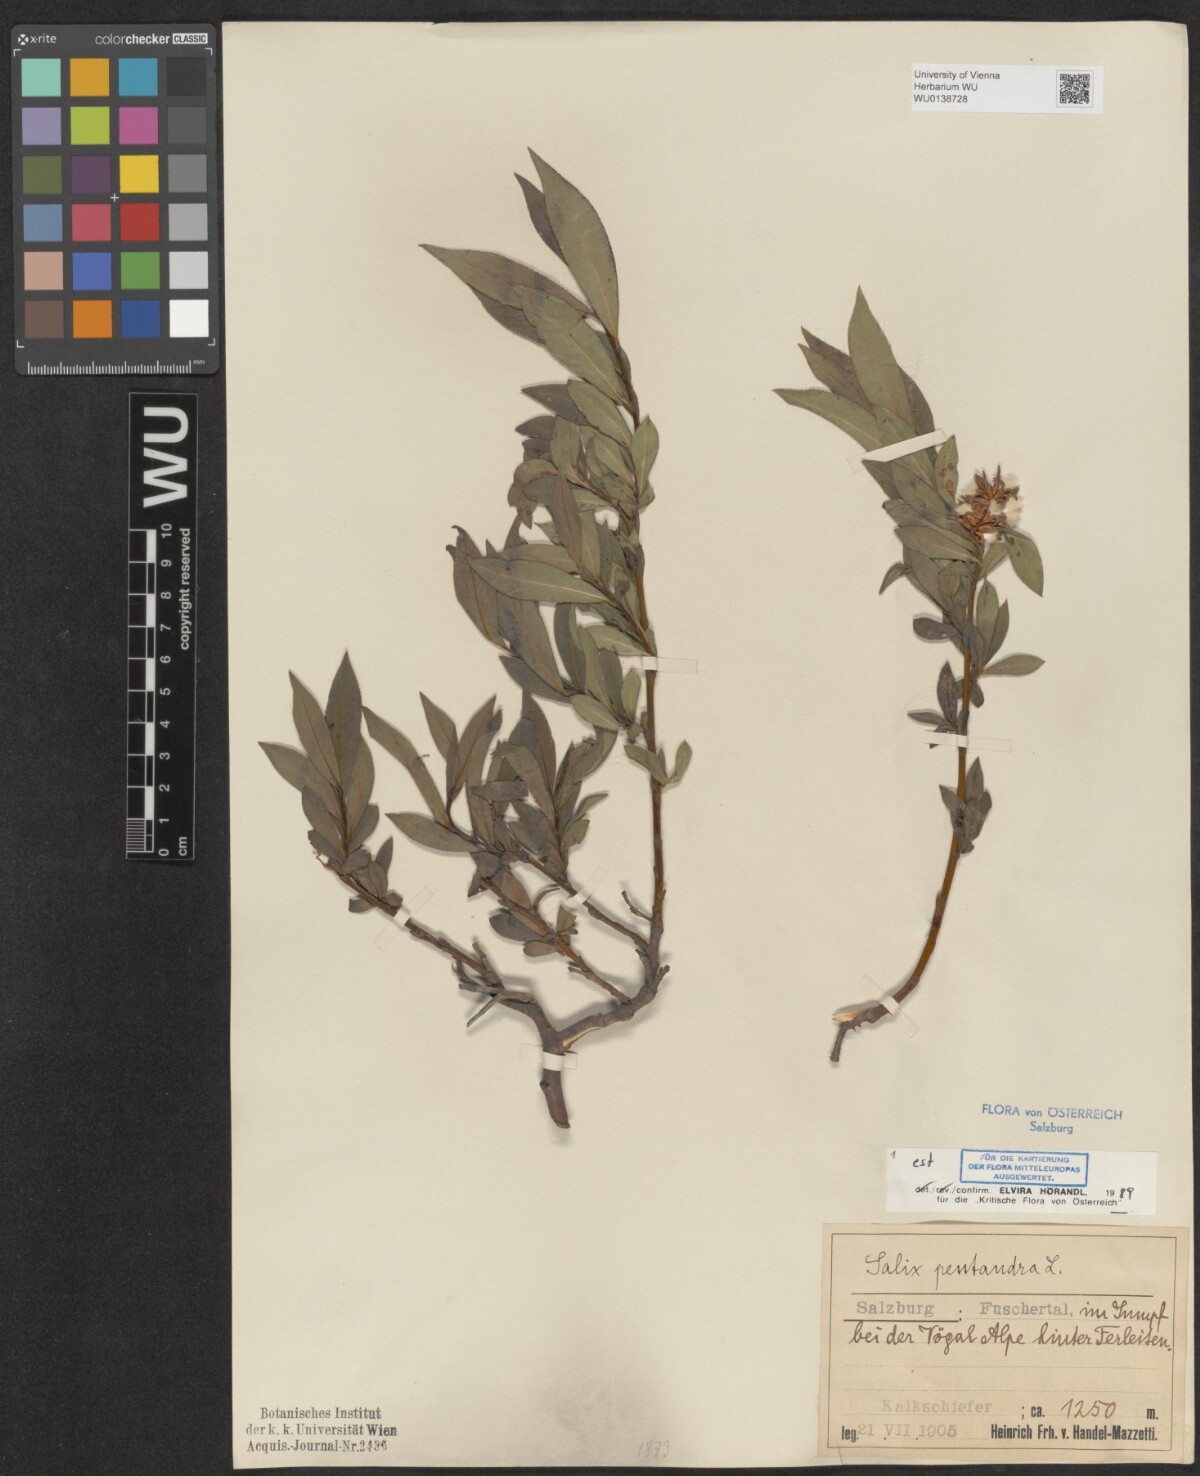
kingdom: Plantae
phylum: Tracheophyta
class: Magnoliopsida
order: Malpighiales
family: Salicaceae
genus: Salix
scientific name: Salix pentandra
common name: Bay willow
